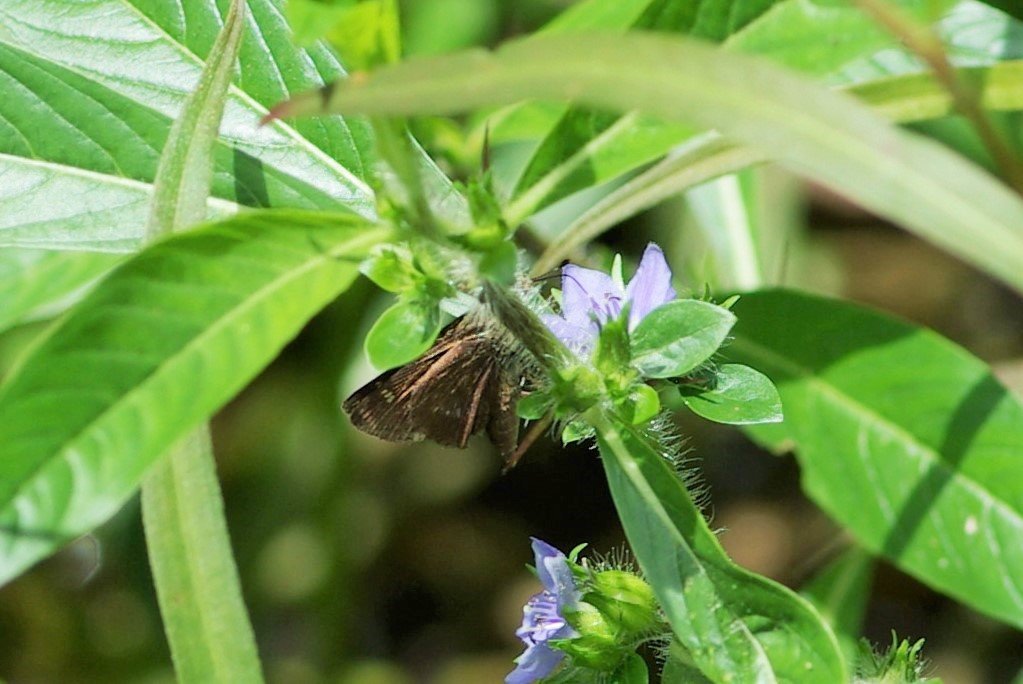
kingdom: Animalia
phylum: Arthropoda
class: Insecta
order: Lepidoptera
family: Hesperiidae
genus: Euphyes
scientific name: Euphyes vestris
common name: Dun Skipper
